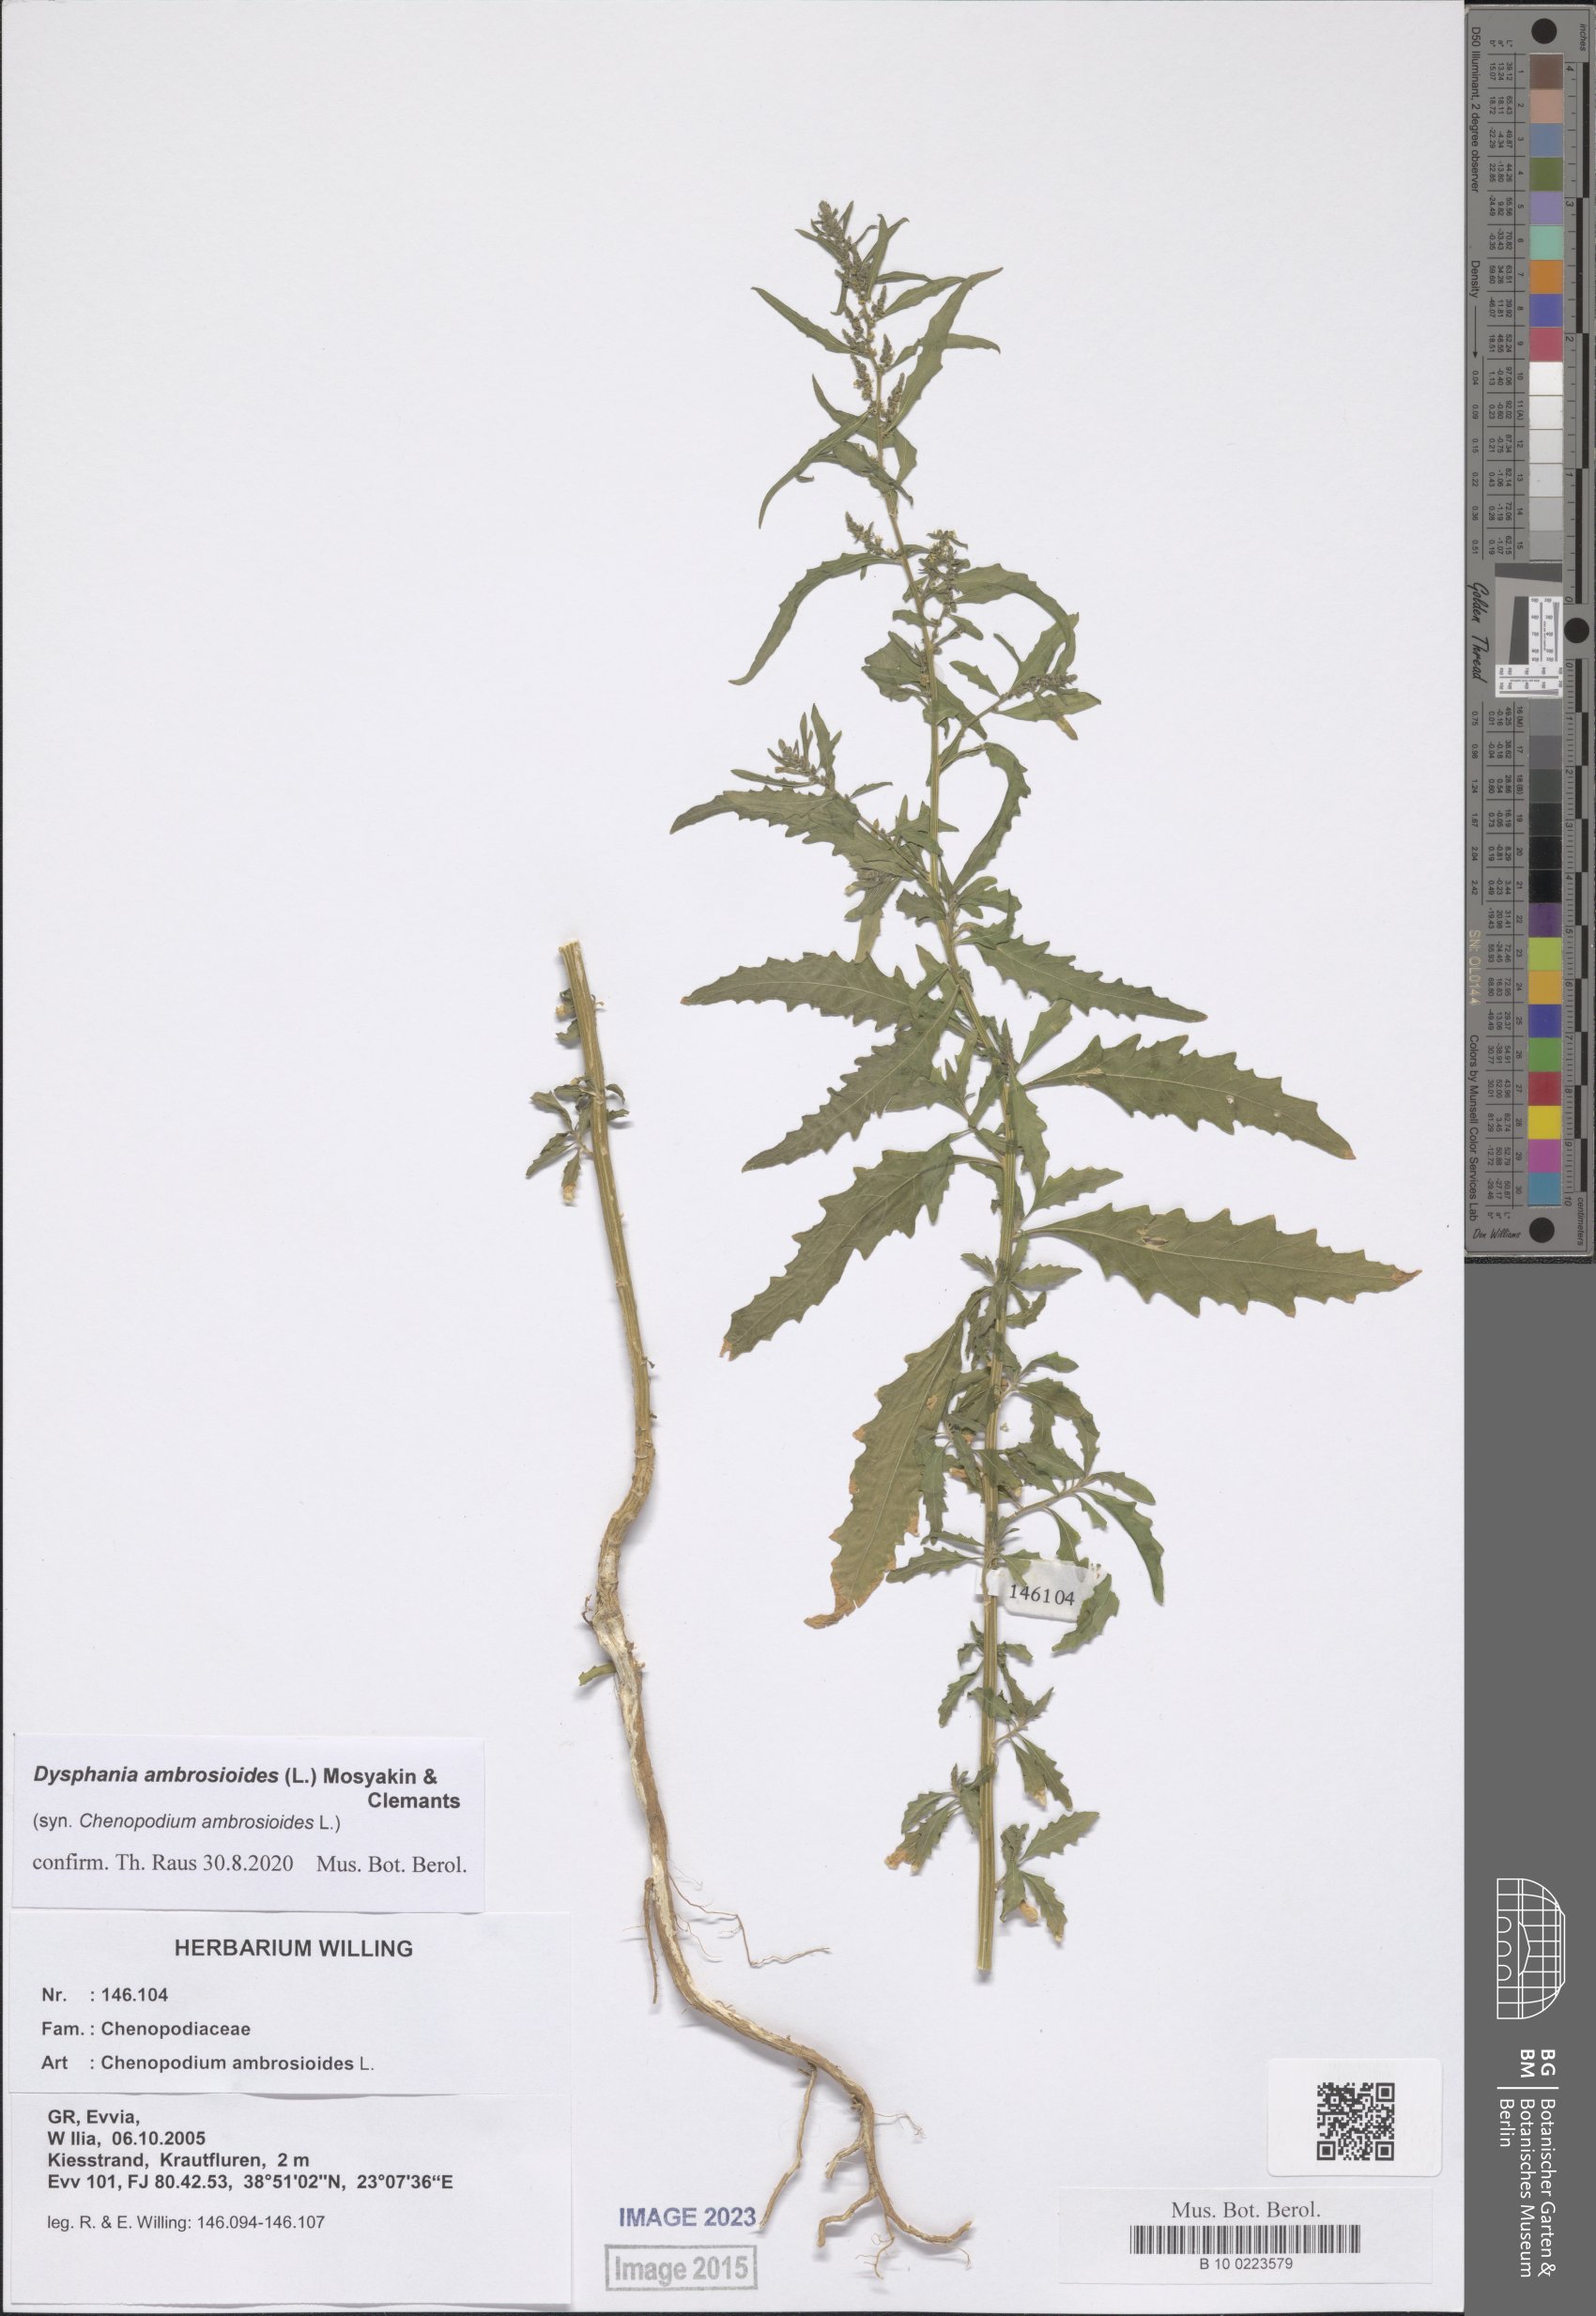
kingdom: Plantae
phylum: Tracheophyta
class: Magnoliopsida
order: Caryophyllales
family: Amaranthaceae
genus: Dysphania
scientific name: Dysphania ambrosioides
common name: Wormseed
